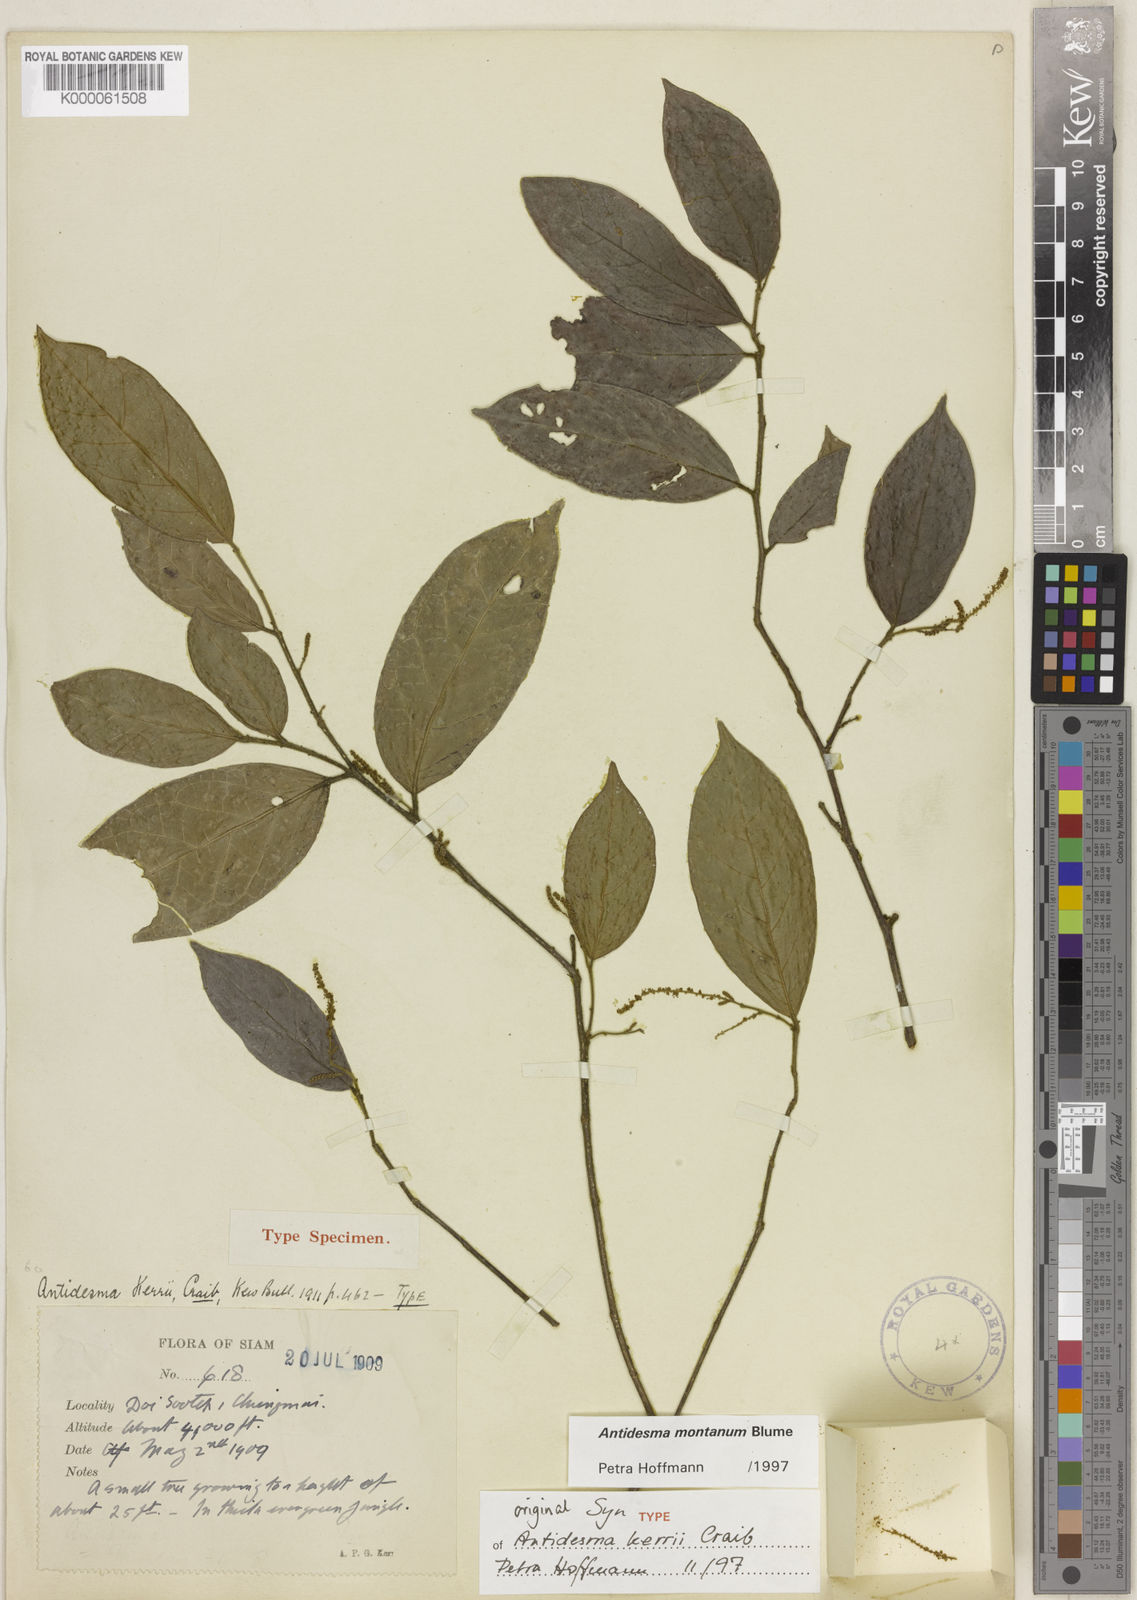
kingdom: Plantae
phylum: Tracheophyta
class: Magnoliopsida
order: Malpighiales
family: Phyllanthaceae
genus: Antidesma
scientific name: Antidesma montanum
